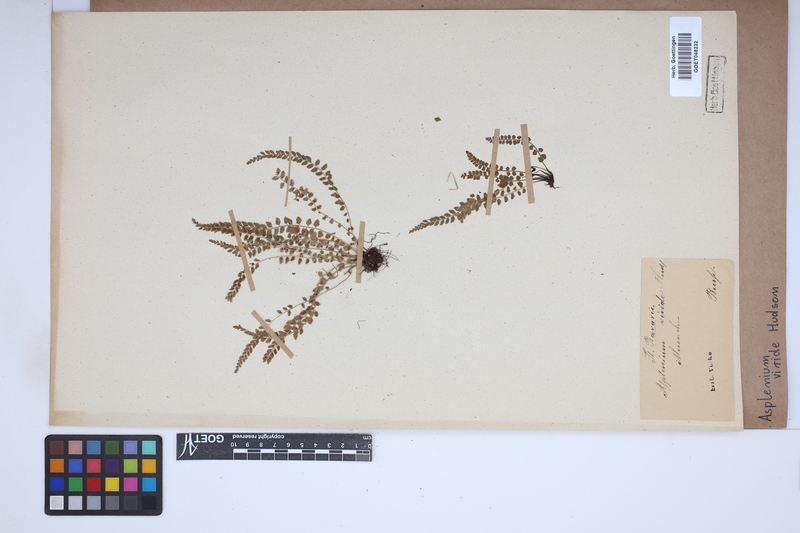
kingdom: Plantae
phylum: Tracheophyta
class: Polypodiopsida
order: Polypodiales
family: Aspleniaceae
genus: Asplenium
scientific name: Asplenium viride
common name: Green spleenwort
